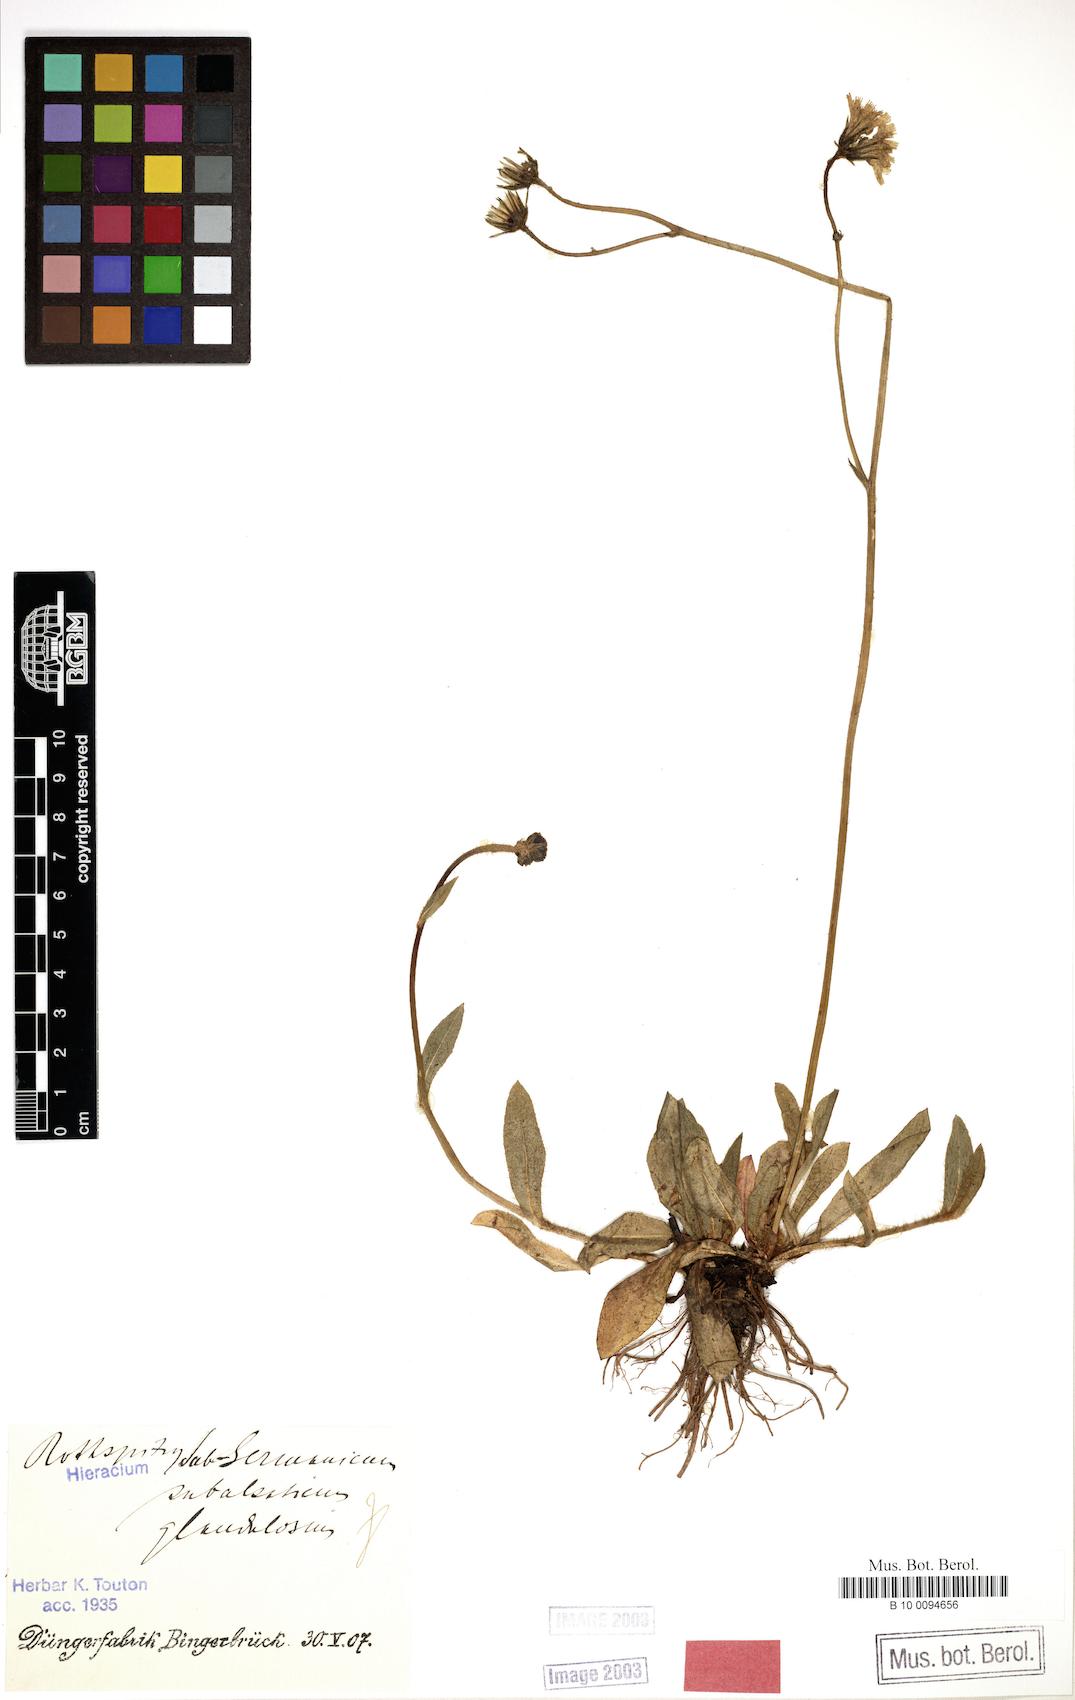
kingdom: Plantae
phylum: Tracheophyta
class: Magnoliopsida
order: Asterales
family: Asteraceae
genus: Pilosella
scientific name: Pilosella pilosellina
